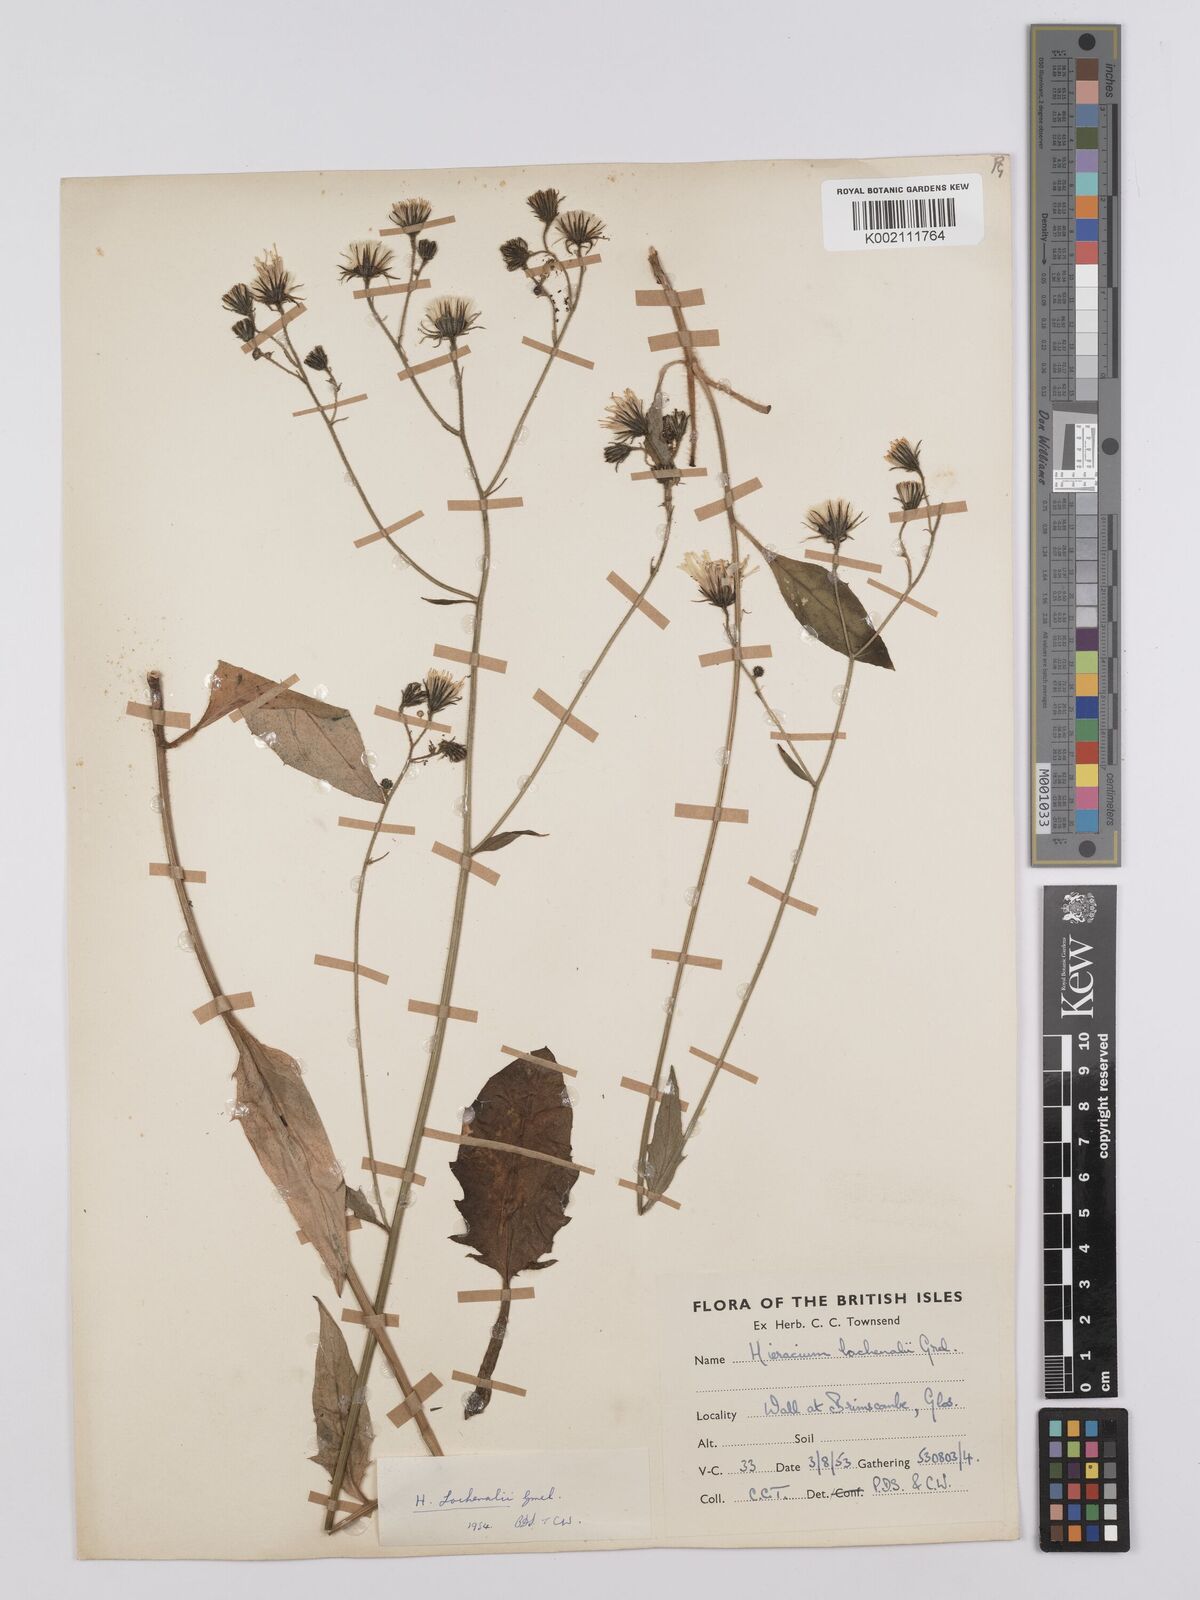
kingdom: Plantae
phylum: Tracheophyta
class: Magnoliopsida
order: Asterales
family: Asteraceae
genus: Hieracium
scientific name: Hieracium lachenalii
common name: Common hawkweed
